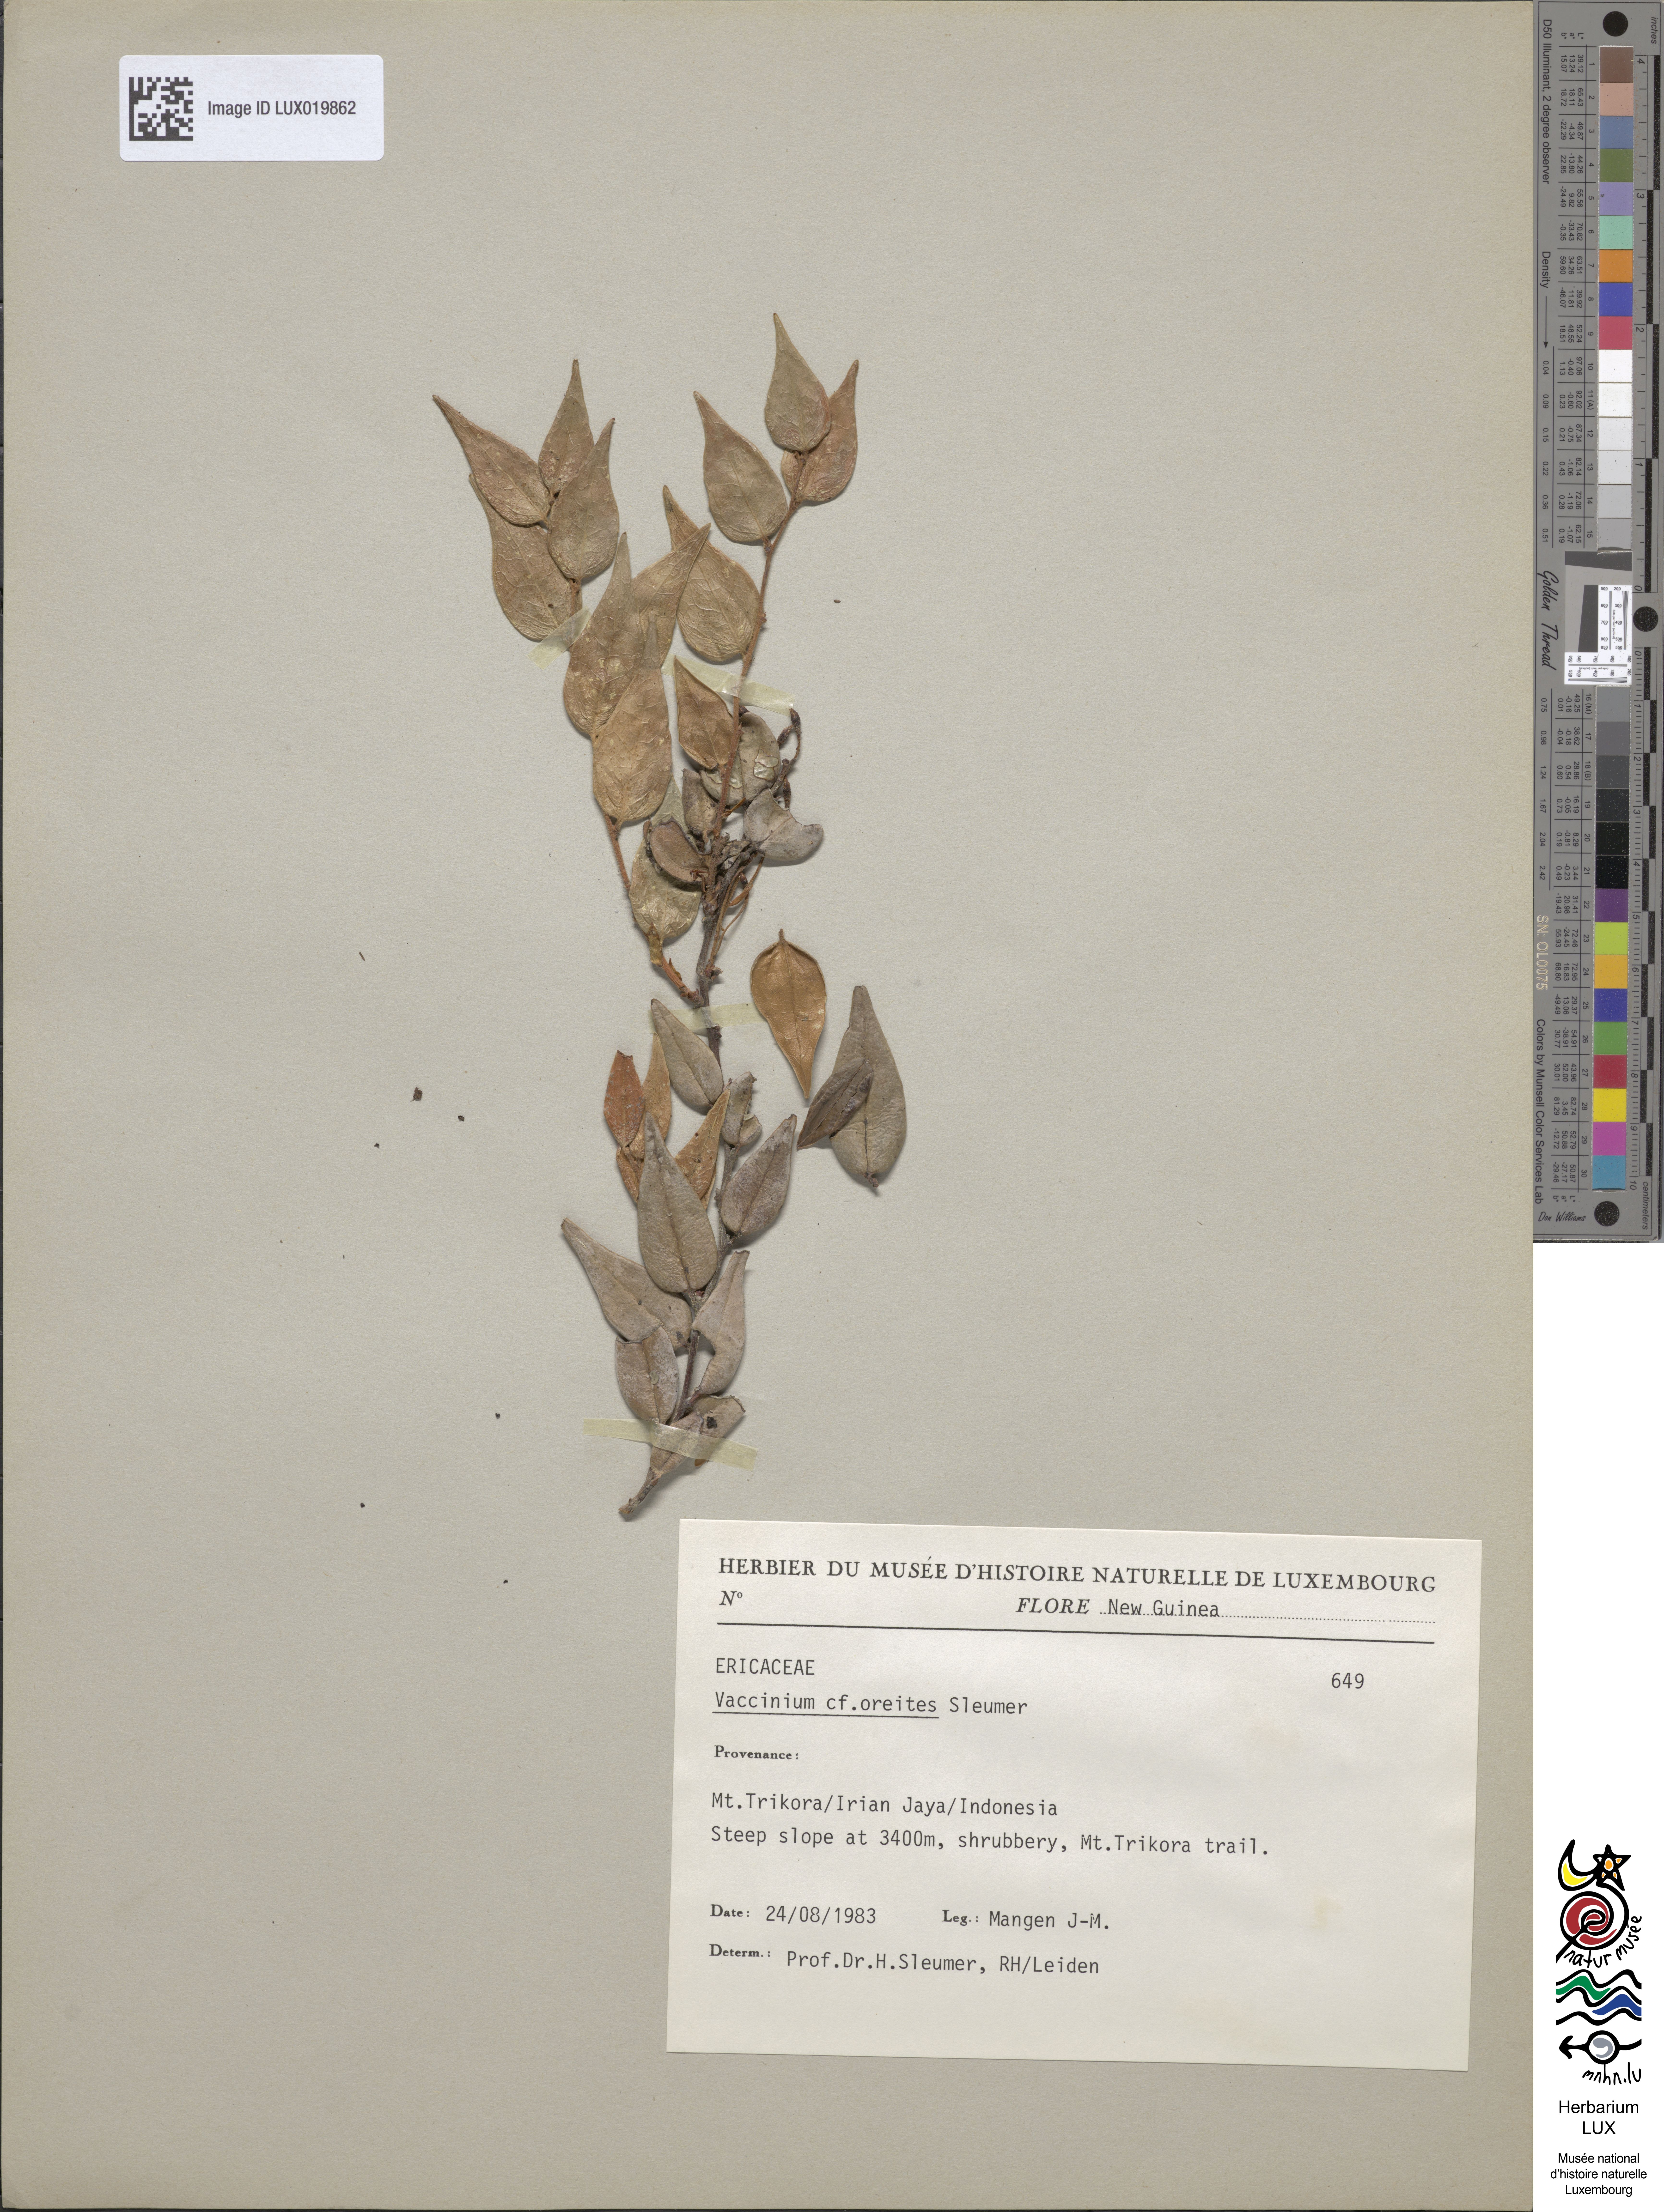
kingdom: Plantae
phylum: Tracheophyta
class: Magnoliopsida
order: Ericales
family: Ericaceae
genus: Vaccinium
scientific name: Vaccinium oreites
